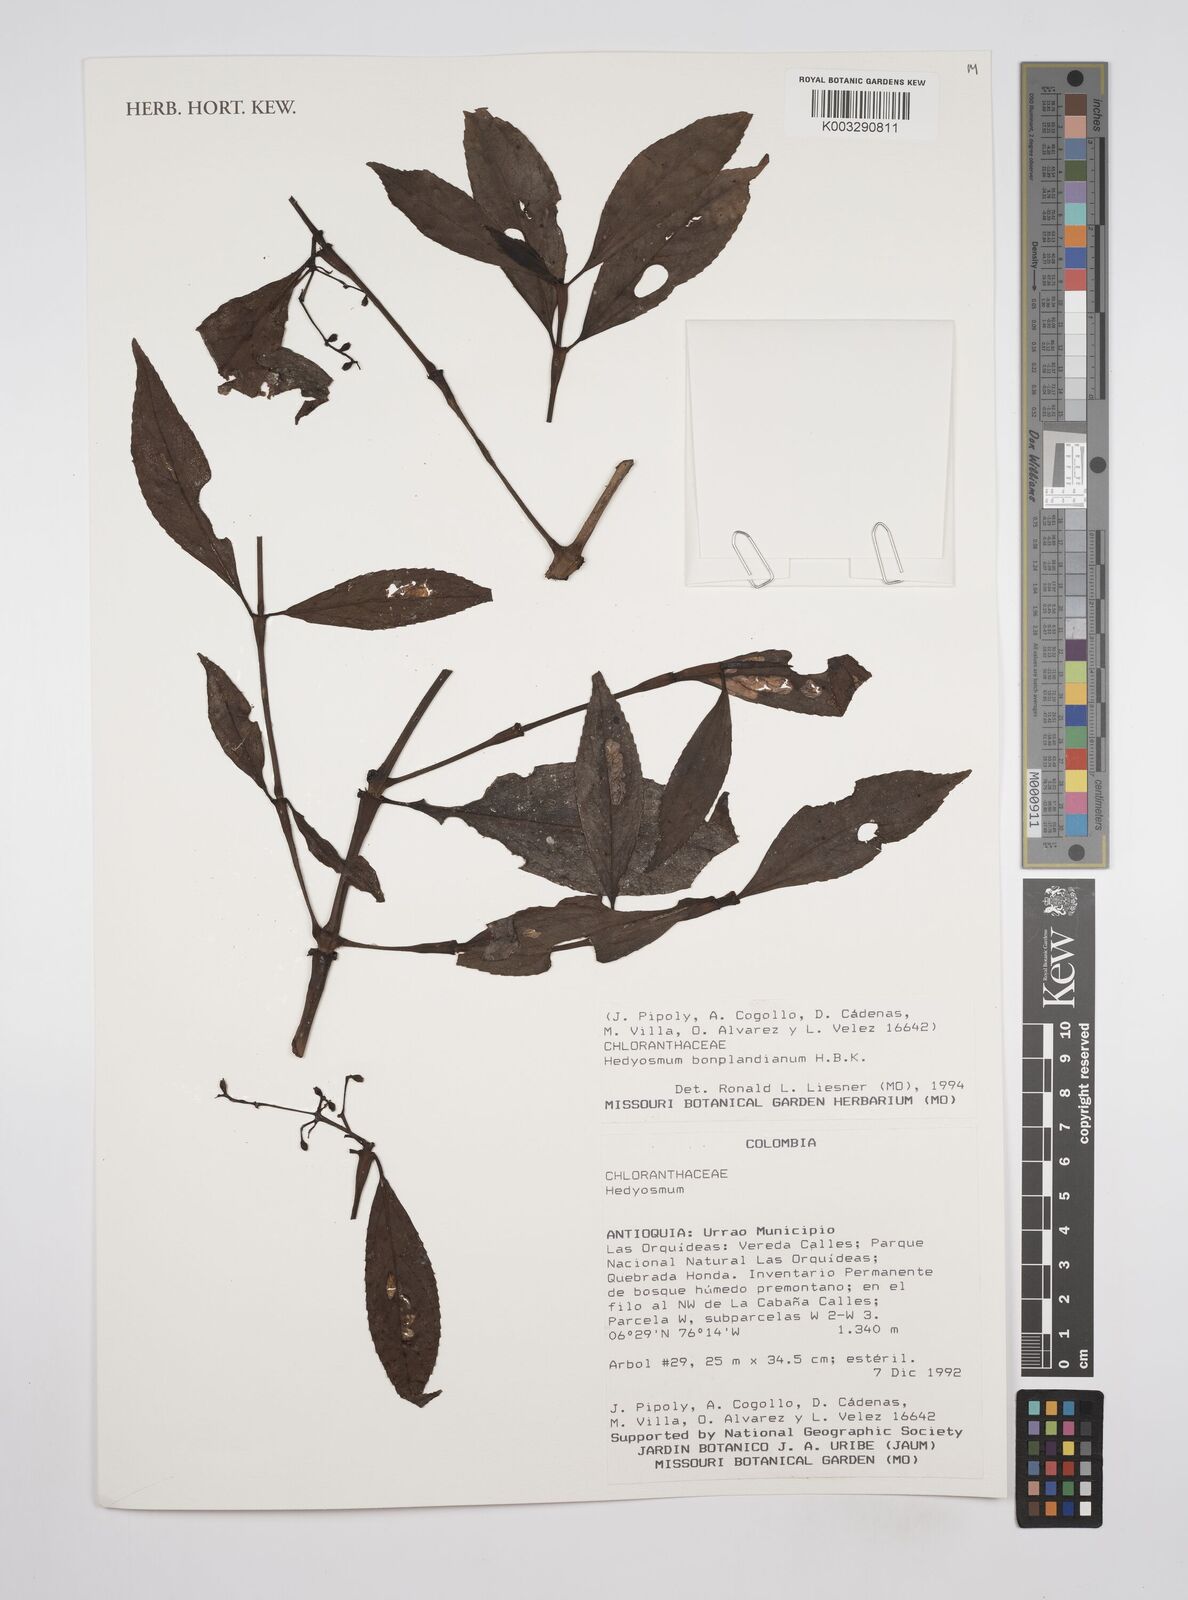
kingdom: Plantae
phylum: Tracheophyta
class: Magnoliopsida
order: Chloranthales
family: Chloranthaceae
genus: Hedyosmum
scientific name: Hedyosmum
